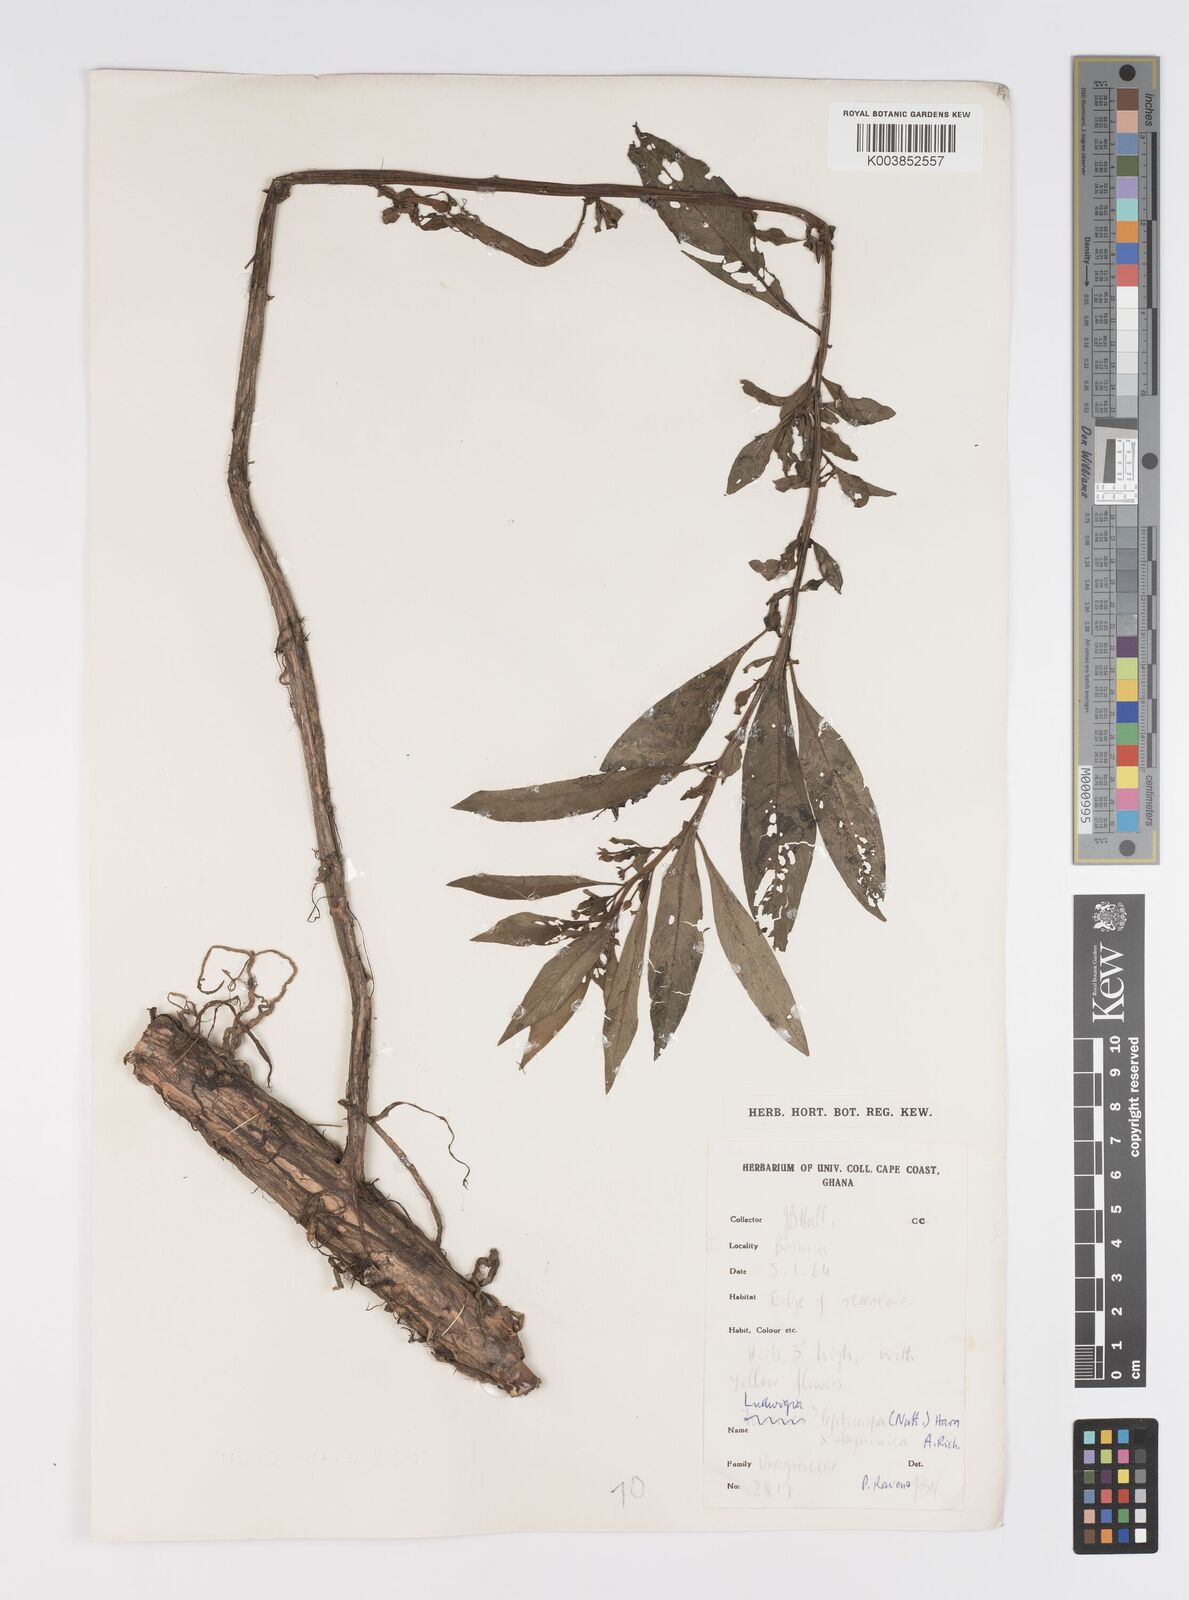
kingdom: Plantae
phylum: Tracheophyta
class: Magnoliopsida
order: Myrtales
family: Onagraceae
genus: Ludwigia
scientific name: Ludwigia leptocarpa
